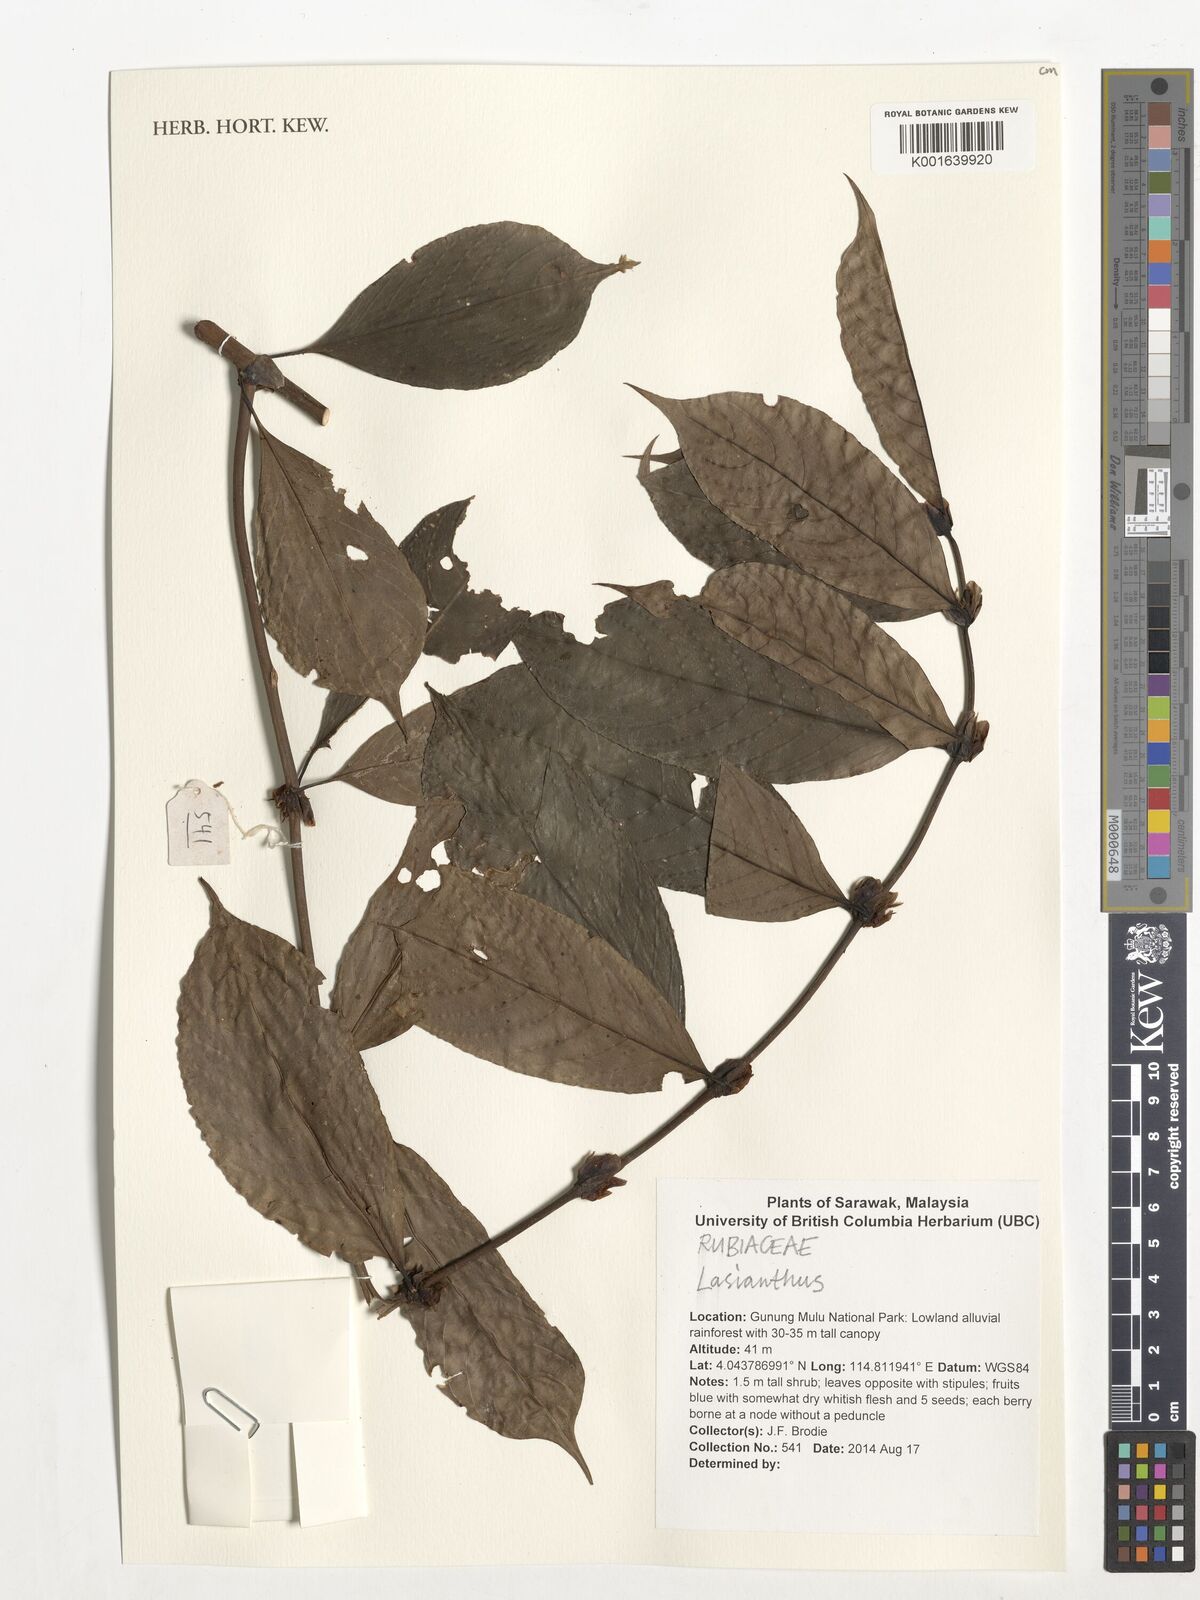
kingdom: Plantae
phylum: Tracheophyta
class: Magnoliopsida
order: Gentianales
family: Rubiaceae
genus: Lasianthus
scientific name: Lasianthus
